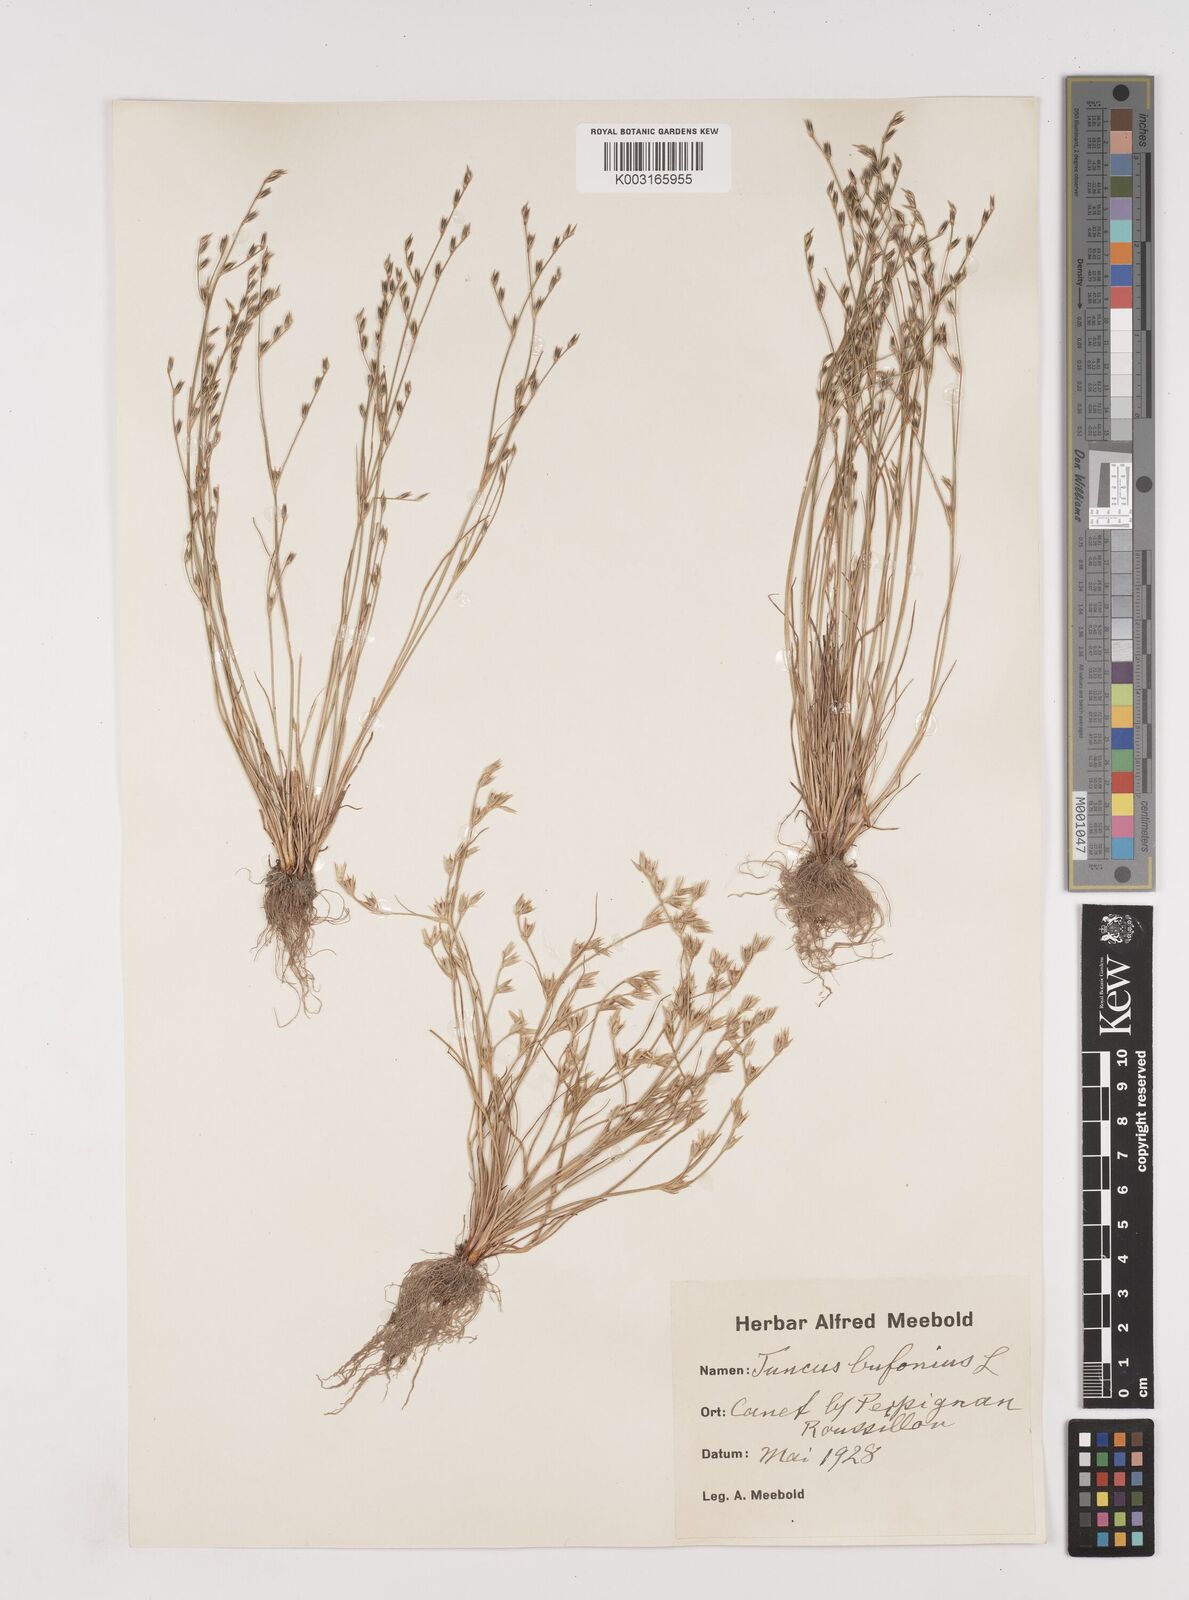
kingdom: Plantae
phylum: Tracheophyta
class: Liliopsida
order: Poales
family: Juncaceae
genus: Juncus
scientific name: Juncus bufonius
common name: Toad rush
